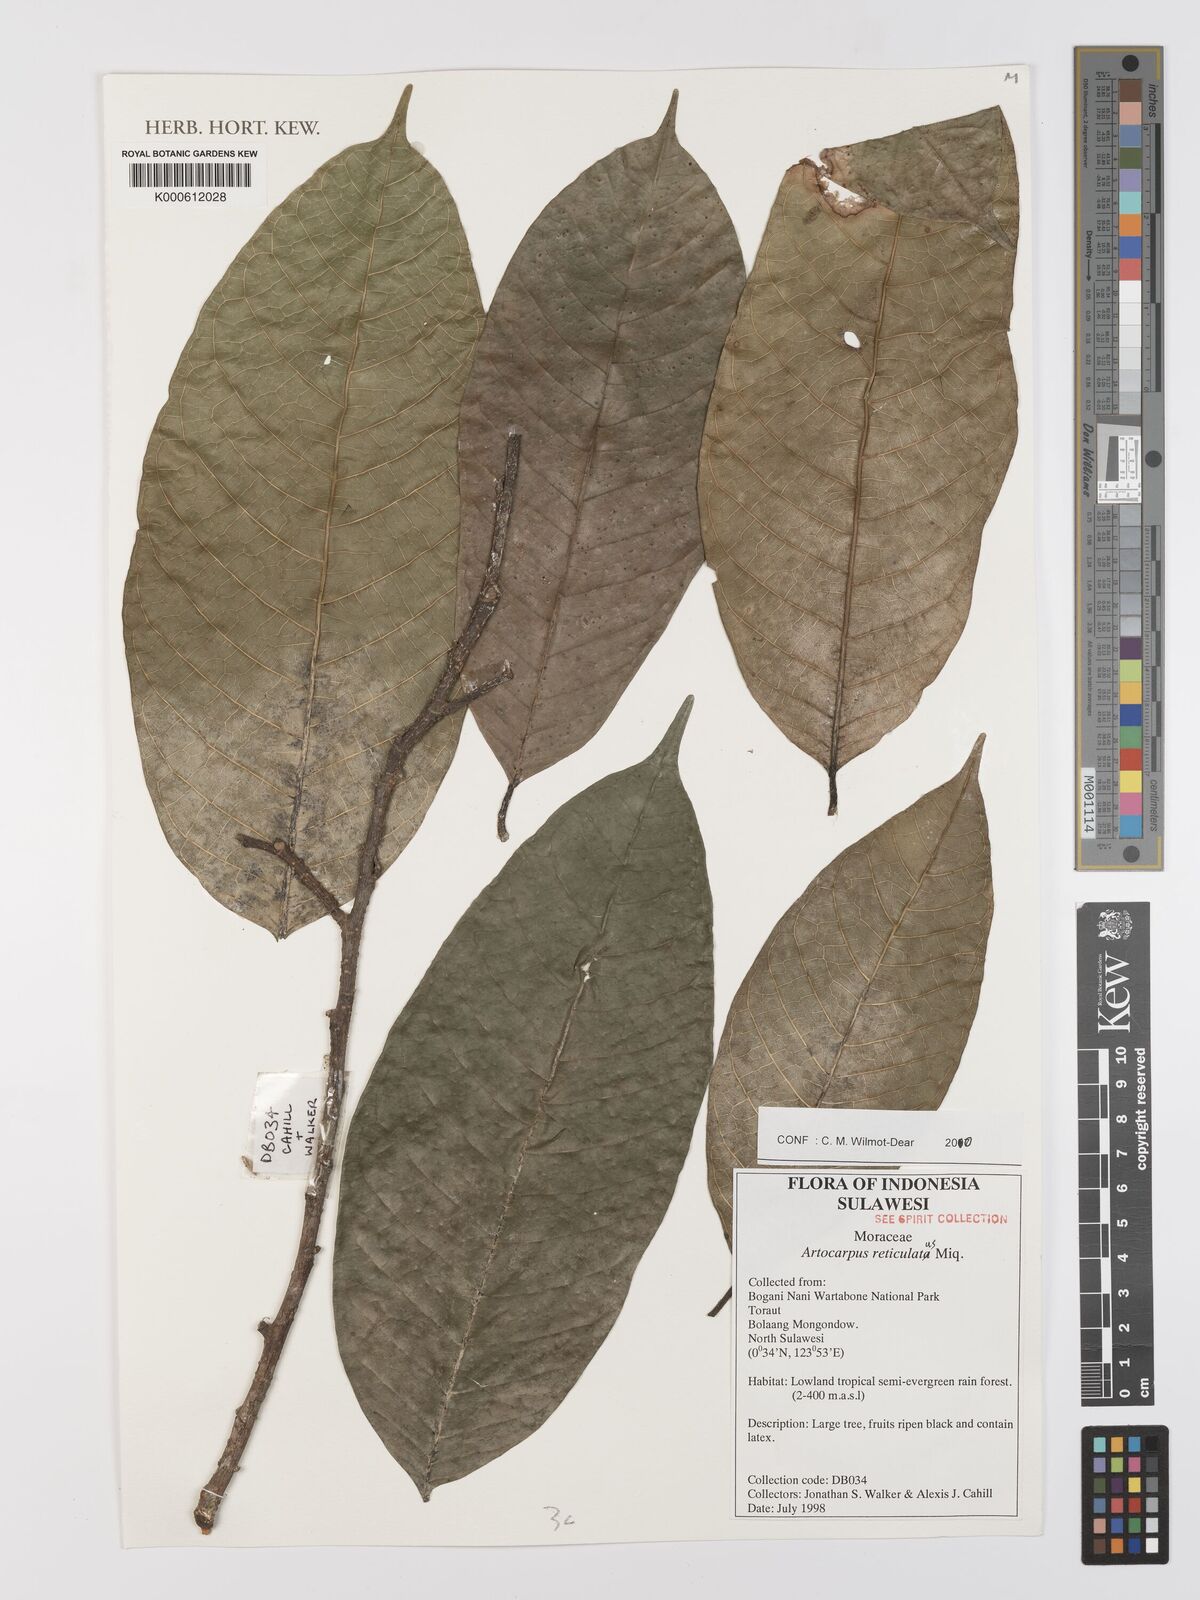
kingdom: Plantae
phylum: Tracheophyta
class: Magnoliopsida
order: Rosales
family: Moraceae
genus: Artocarpus
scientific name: Artocarpus reticulatus
